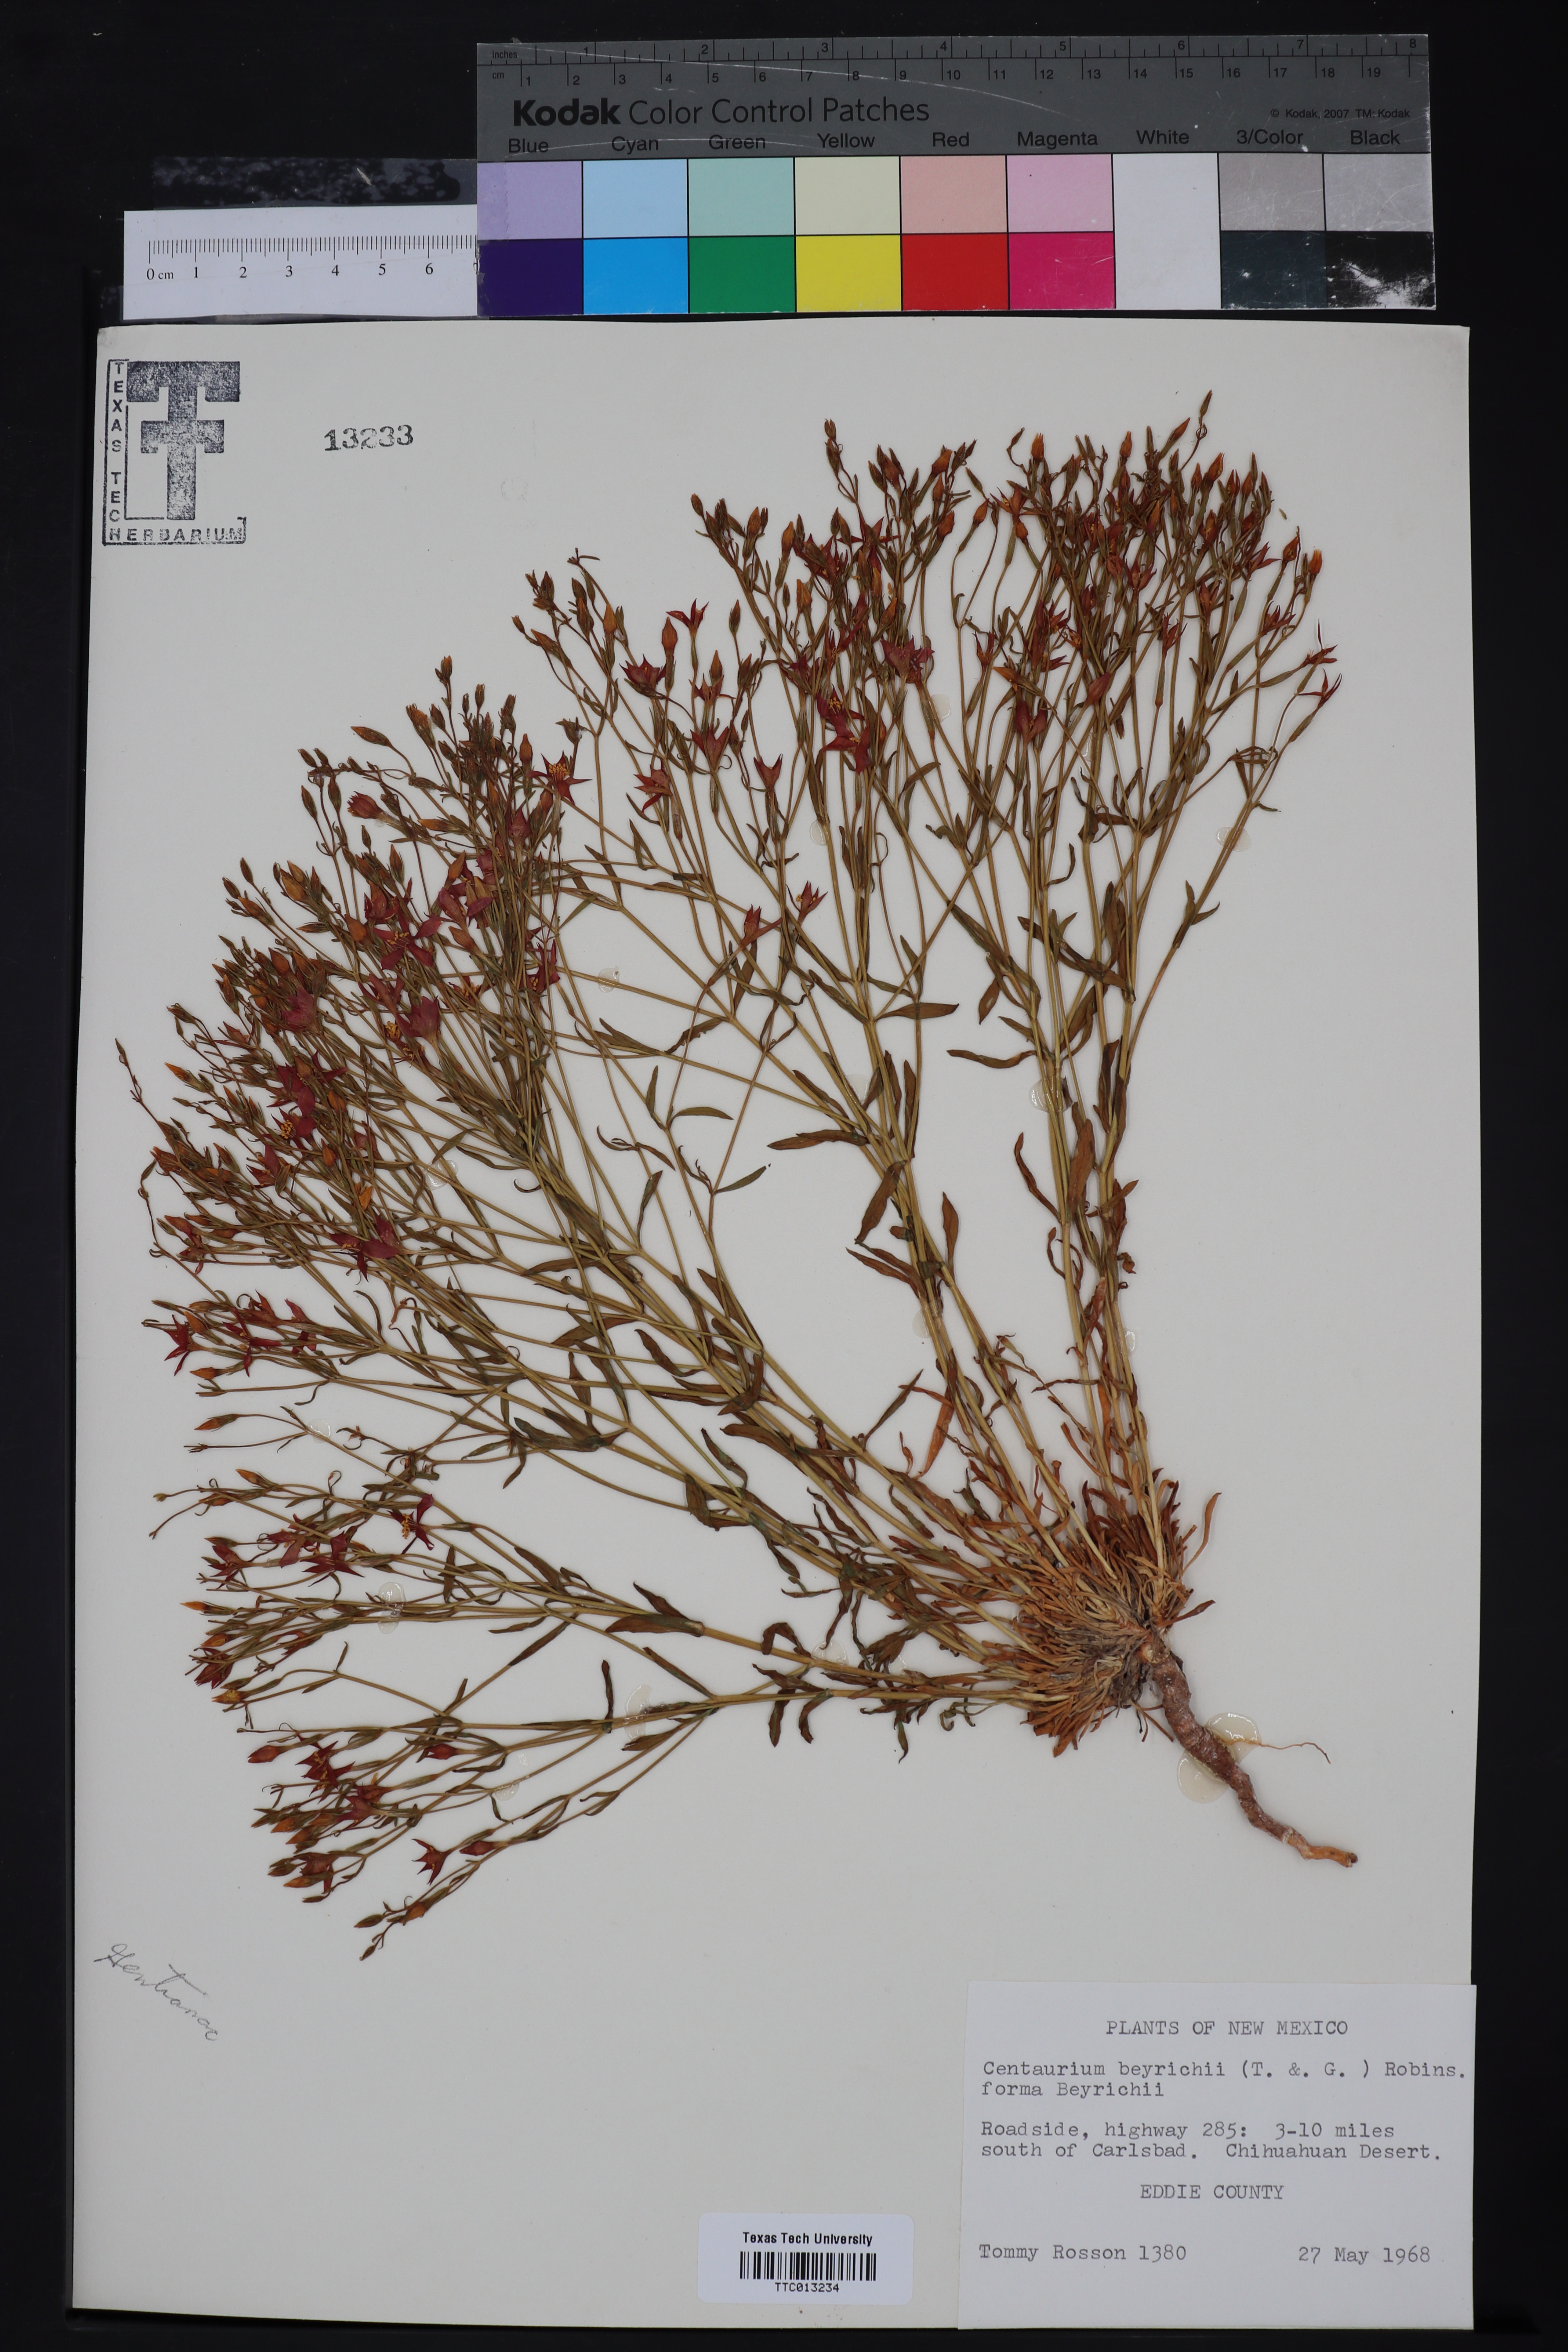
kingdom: Plantae
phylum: Tracheophyta
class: Magnoliopsida
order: Gentianales
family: Gentianaceae
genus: Zeltnera
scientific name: Zeltnera beyrichii
